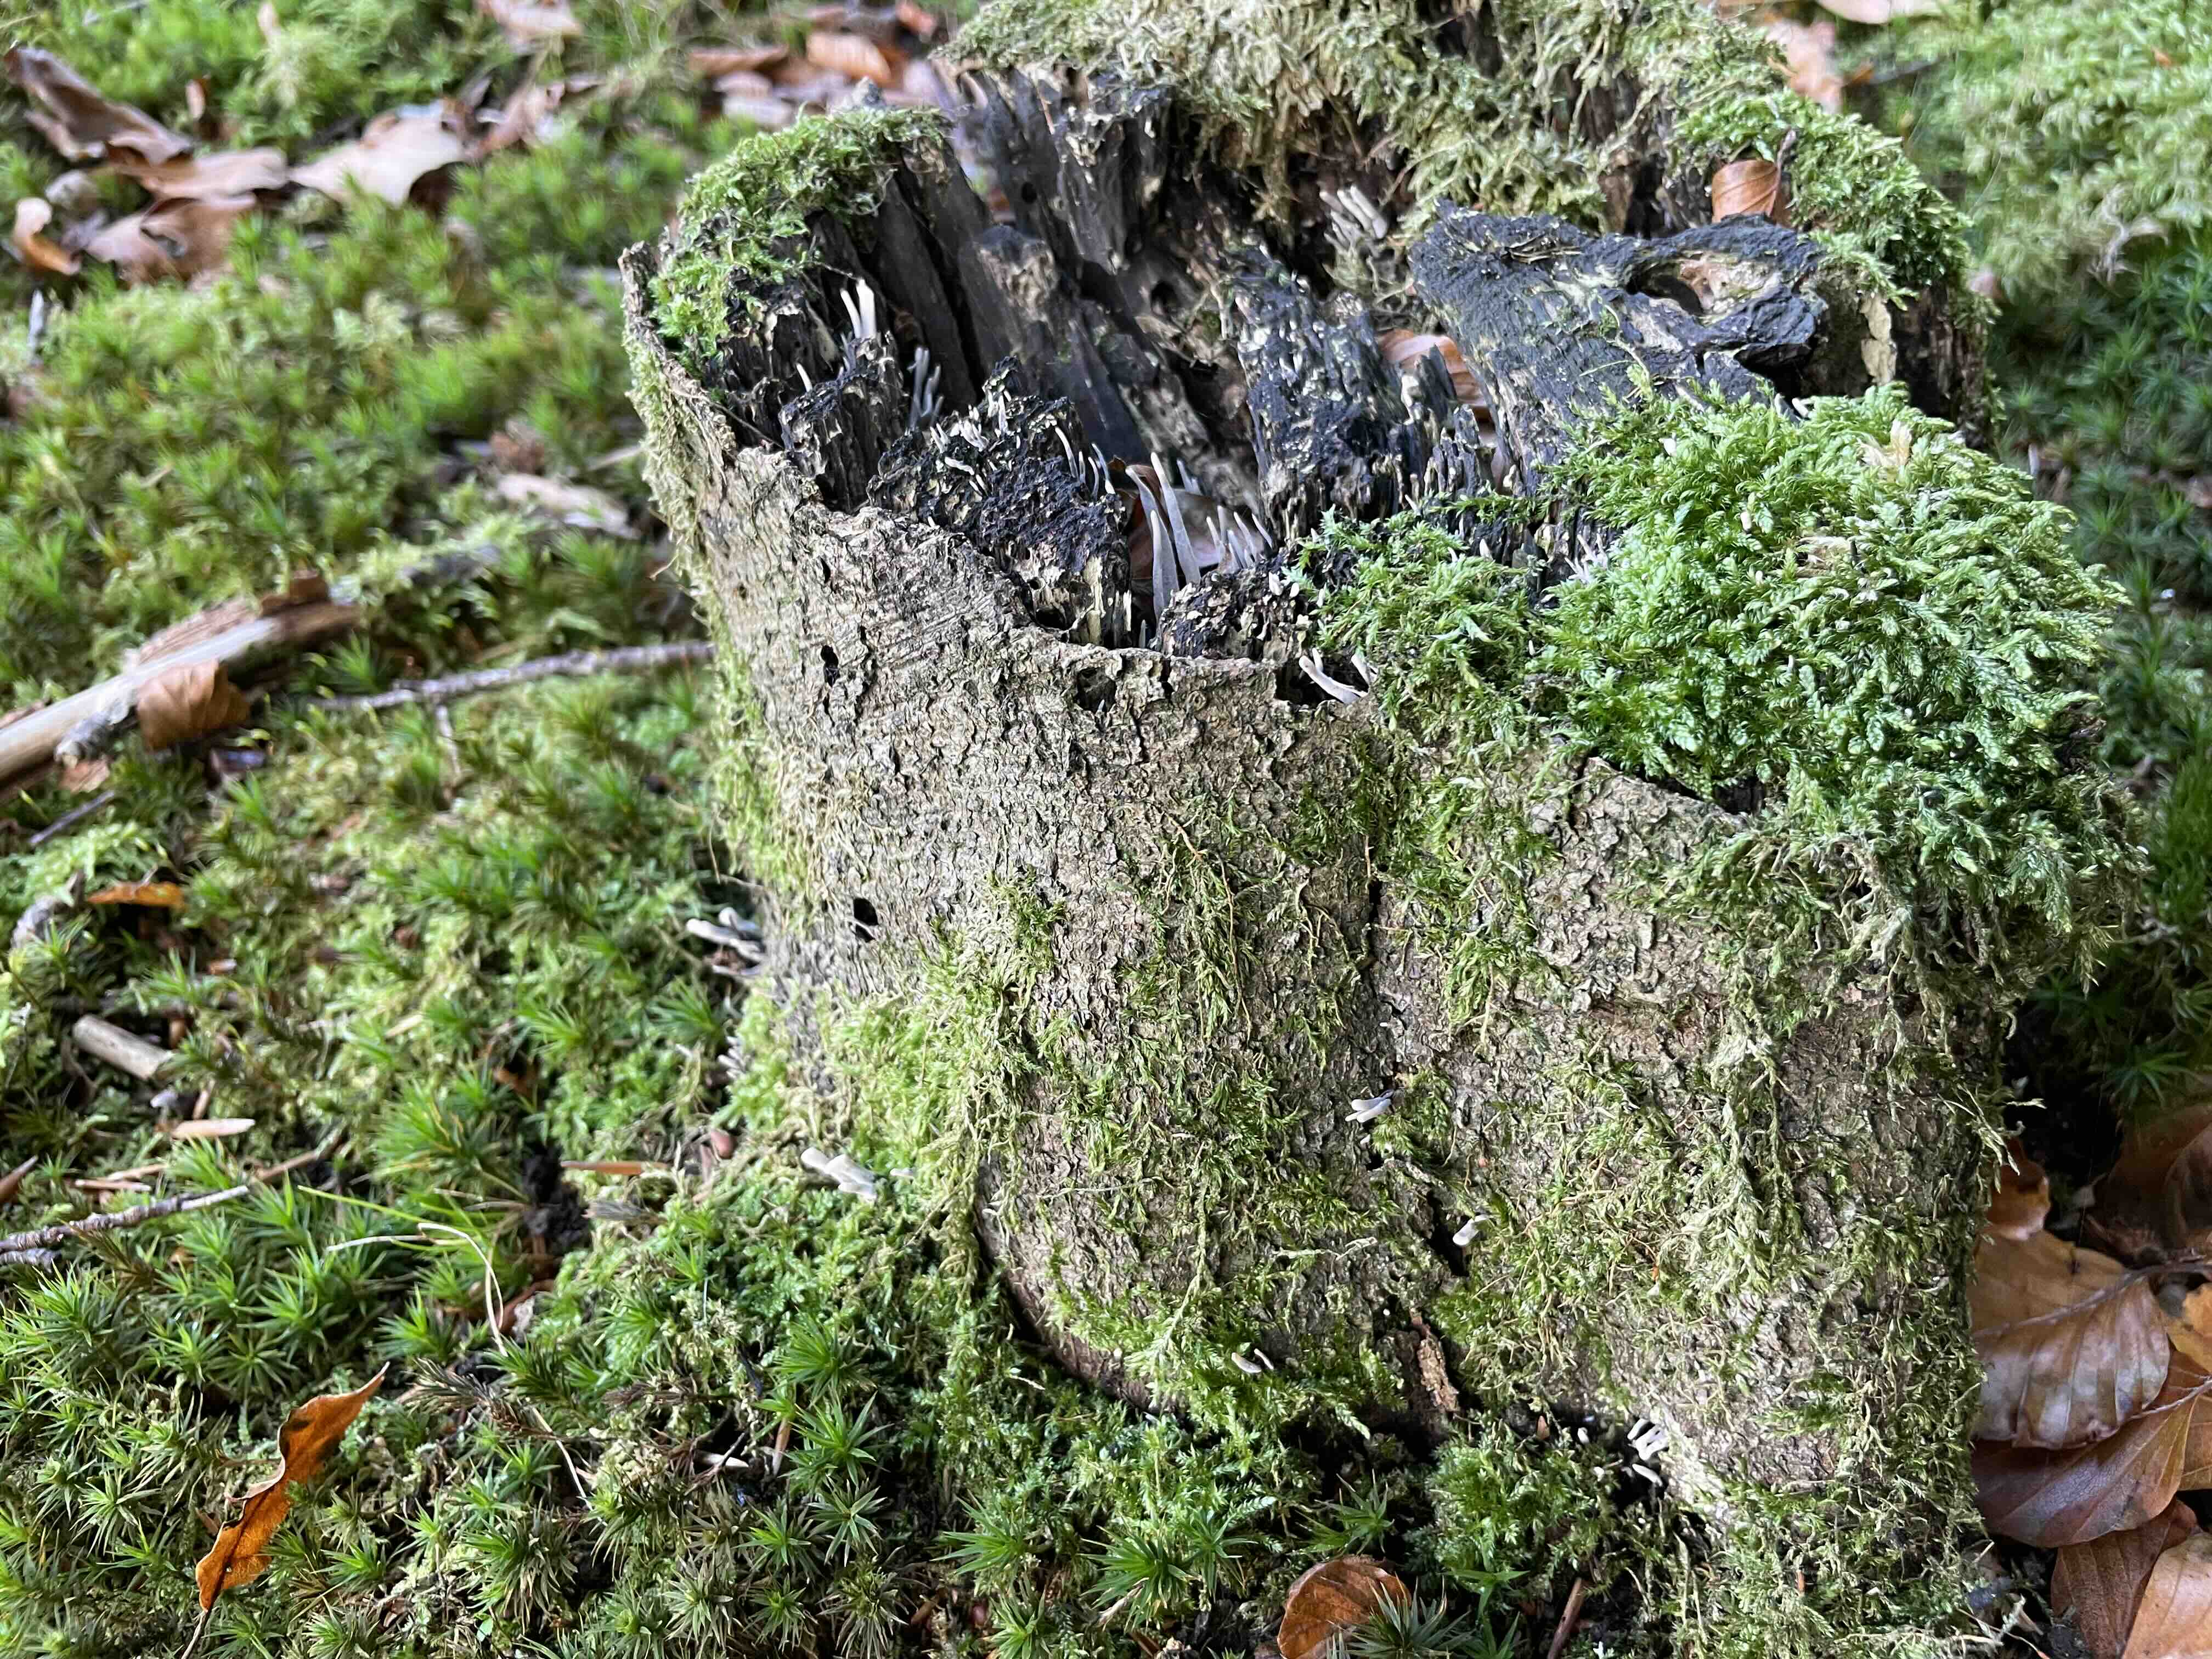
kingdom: Fungi
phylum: Ascomycota
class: Sordariomycetes
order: Xylariales
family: Xylariaceae
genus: Xylaria
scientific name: Xylaria hypoxylon
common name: grenet stødsvamp
